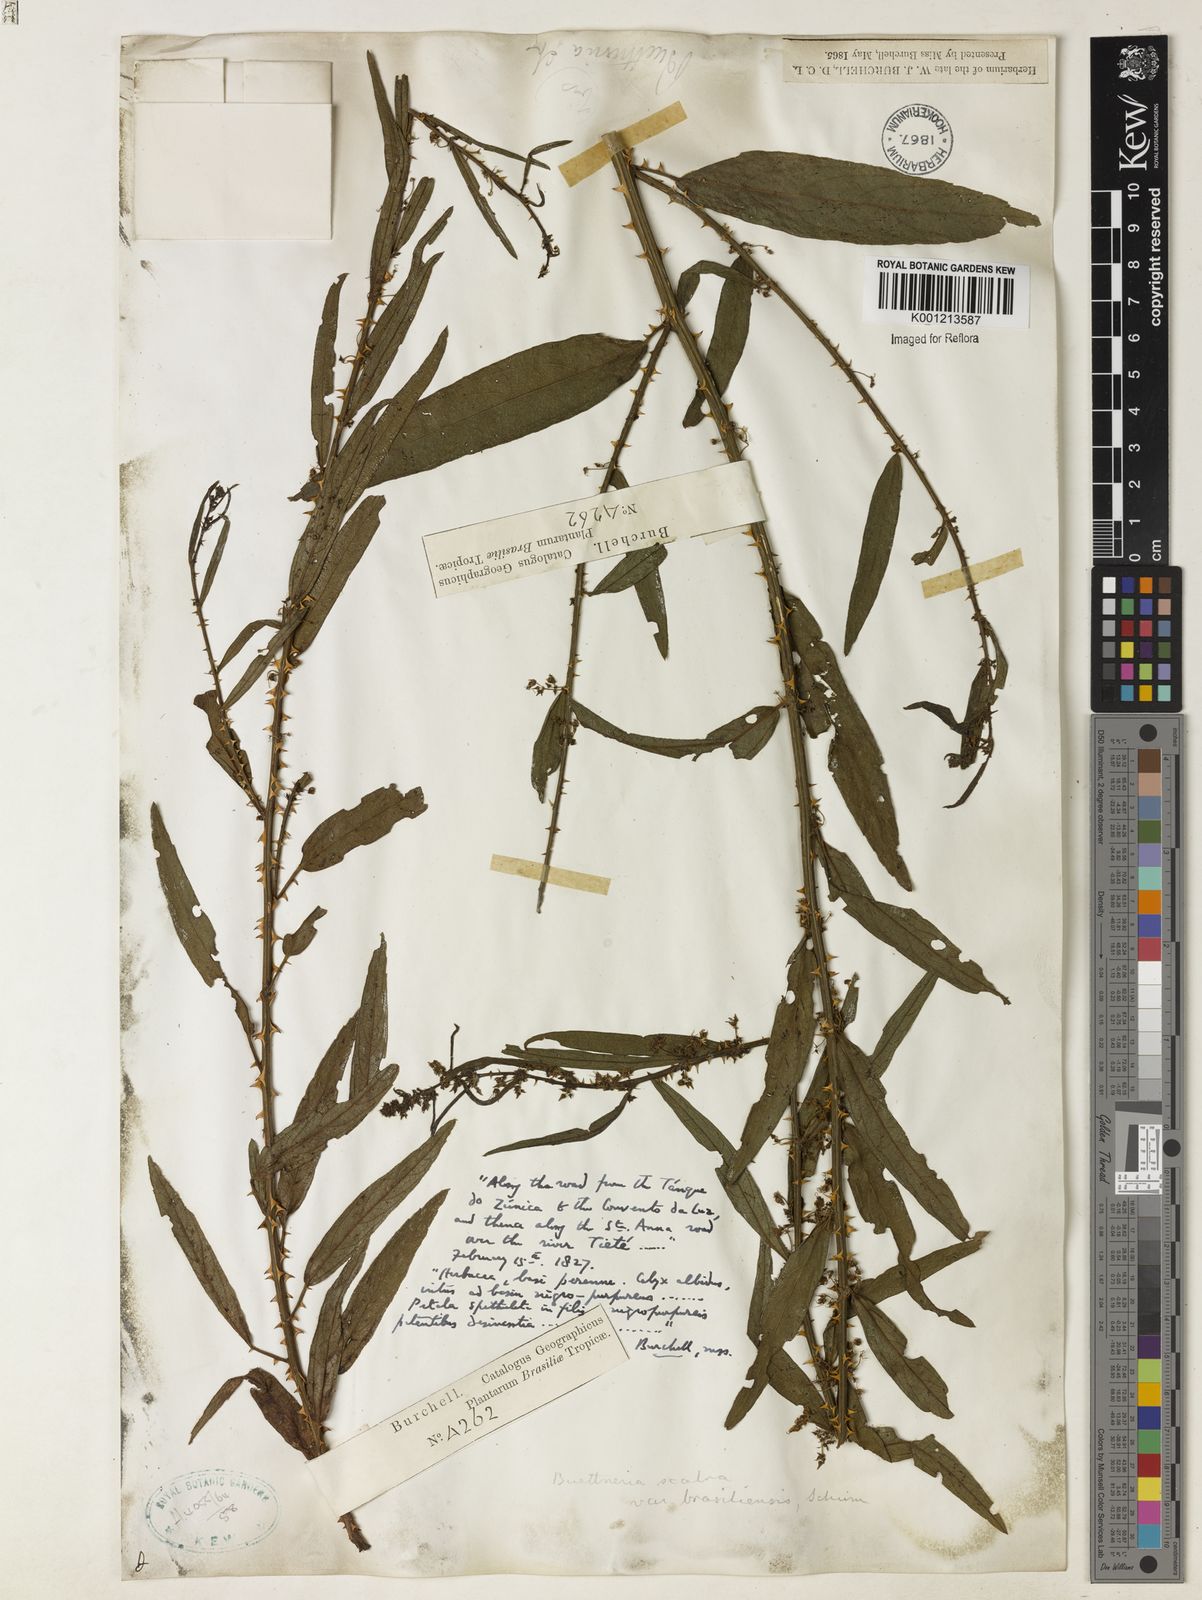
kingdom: Plantae
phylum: Tracheophyta
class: Magnoliopsida
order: Malvales
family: Malvaceae
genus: Byttneria
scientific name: Byttneria
